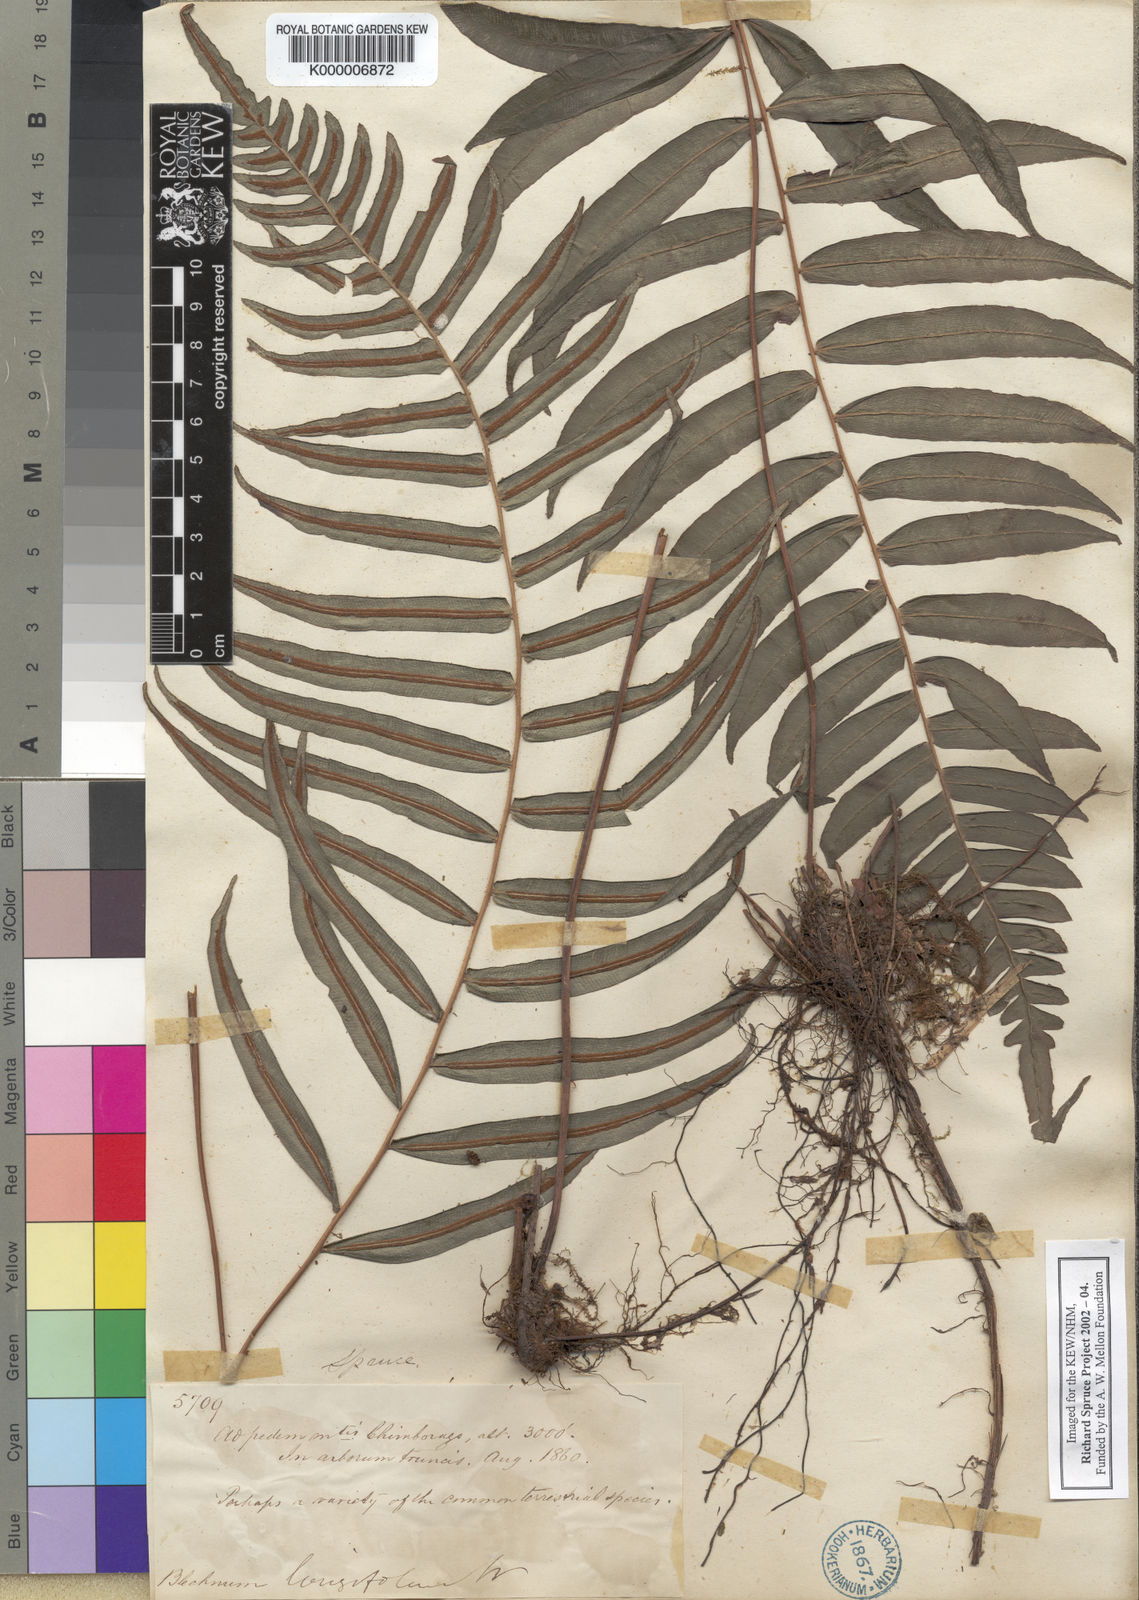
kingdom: Plantae
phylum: Tracheophyta
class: Polypodiopsida
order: Polypodiales
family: Blechnaceae
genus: Blechnum
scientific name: Blechnum
